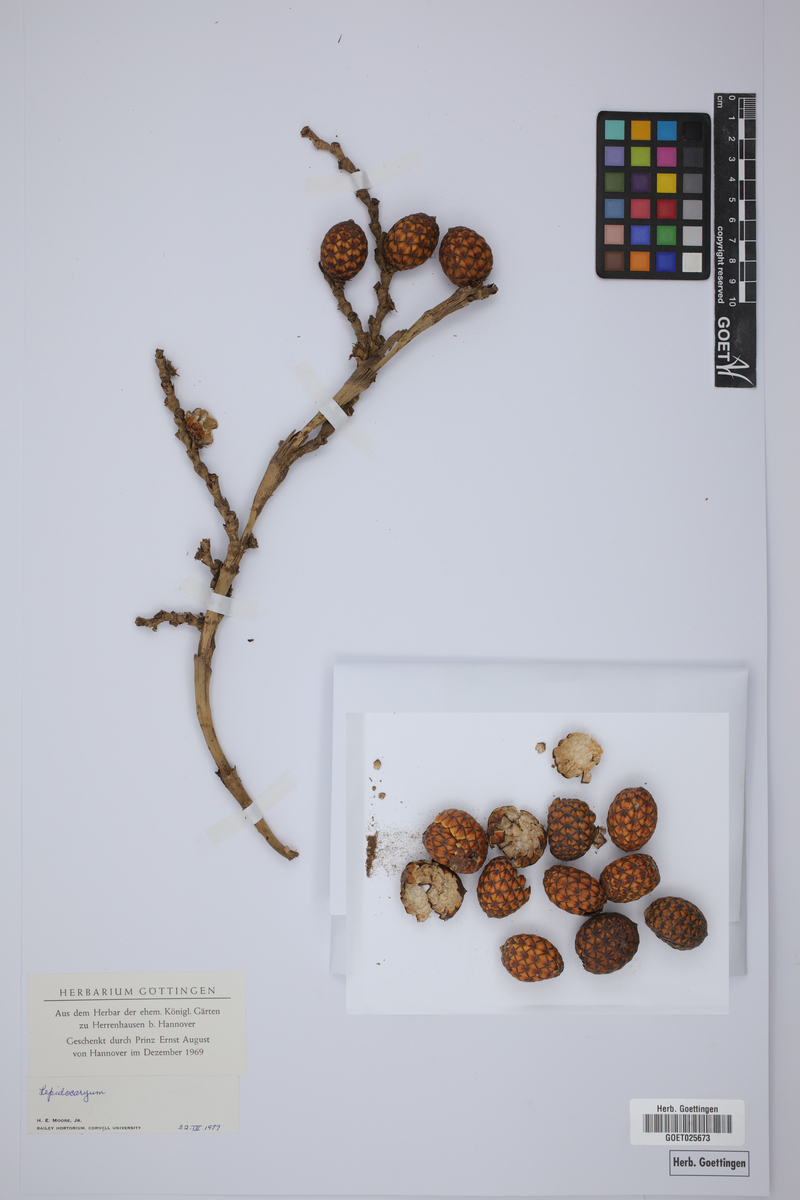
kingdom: Plantae
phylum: Tracheophyta
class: Liliopsida
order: Arecales
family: Arecaceae
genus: Lepidocaryum
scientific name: Lepidocaryum
